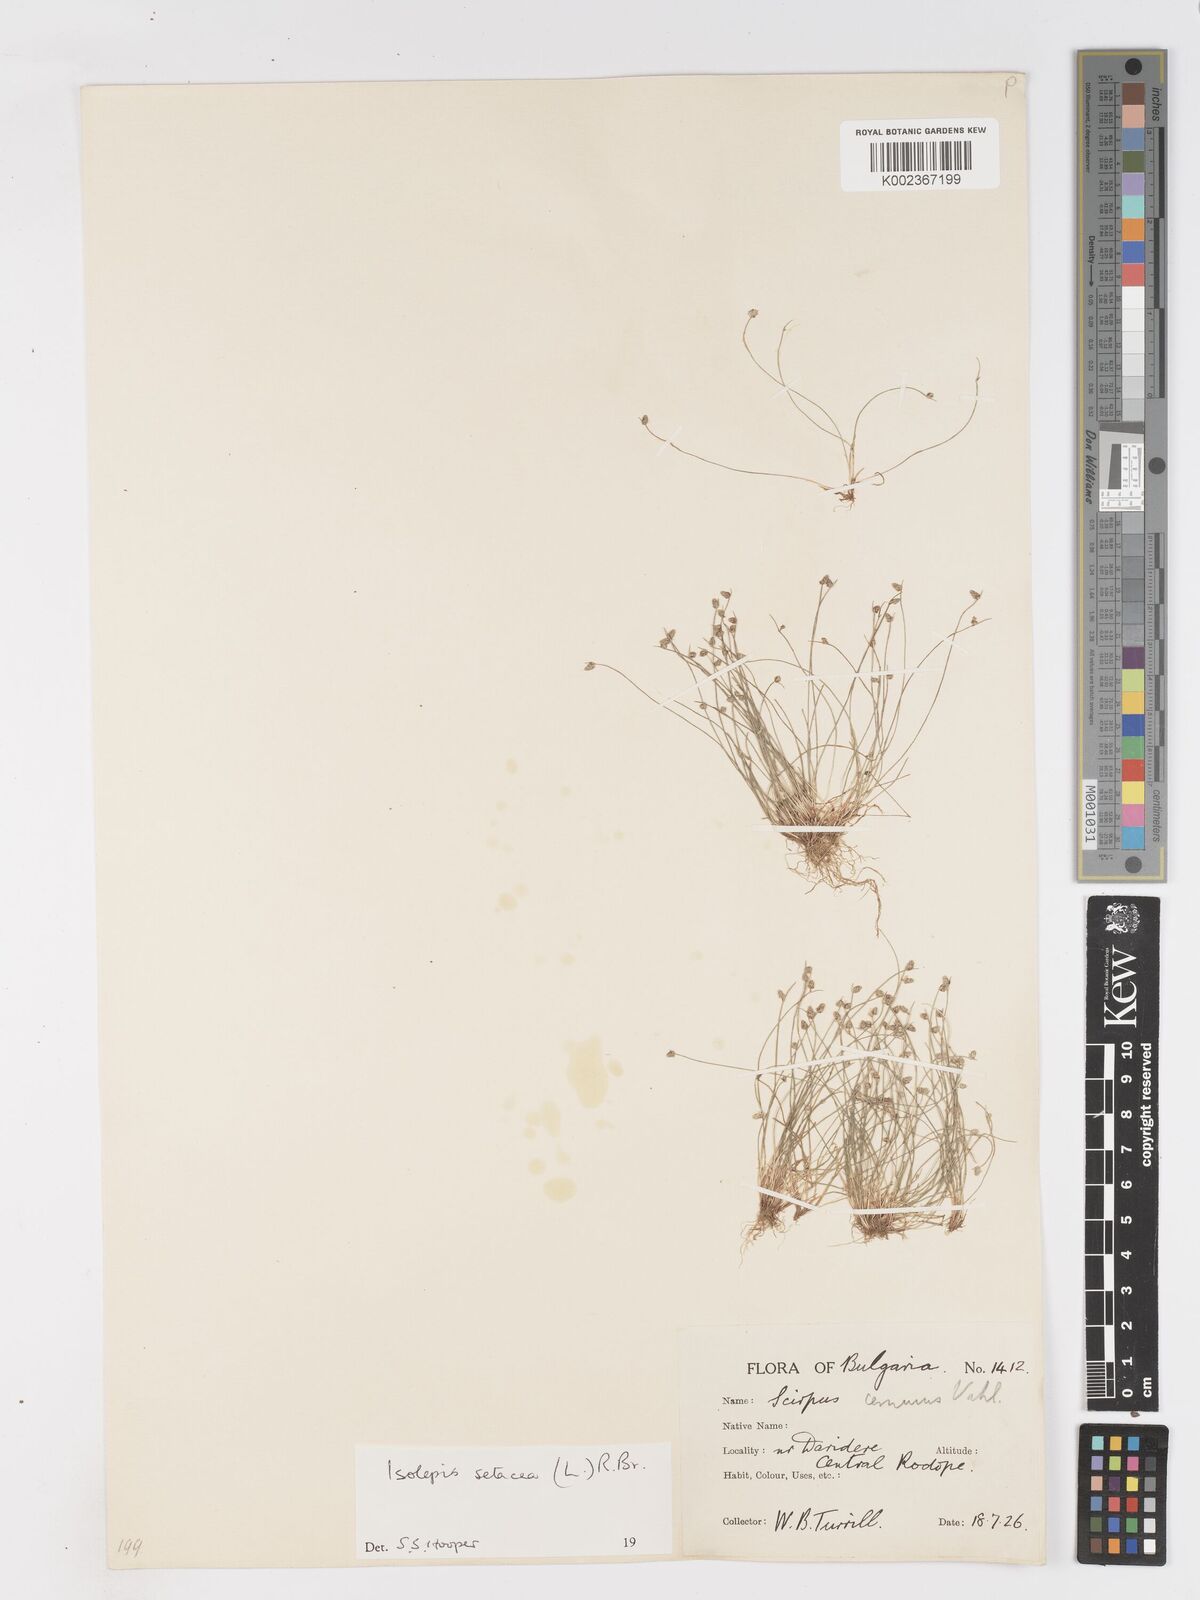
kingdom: Plantae
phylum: Tracheophyta
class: Liliopsida
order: Poales
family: Cyperaceae
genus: Isolepis
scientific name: Isolepis setacea
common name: Bristle club-rush
